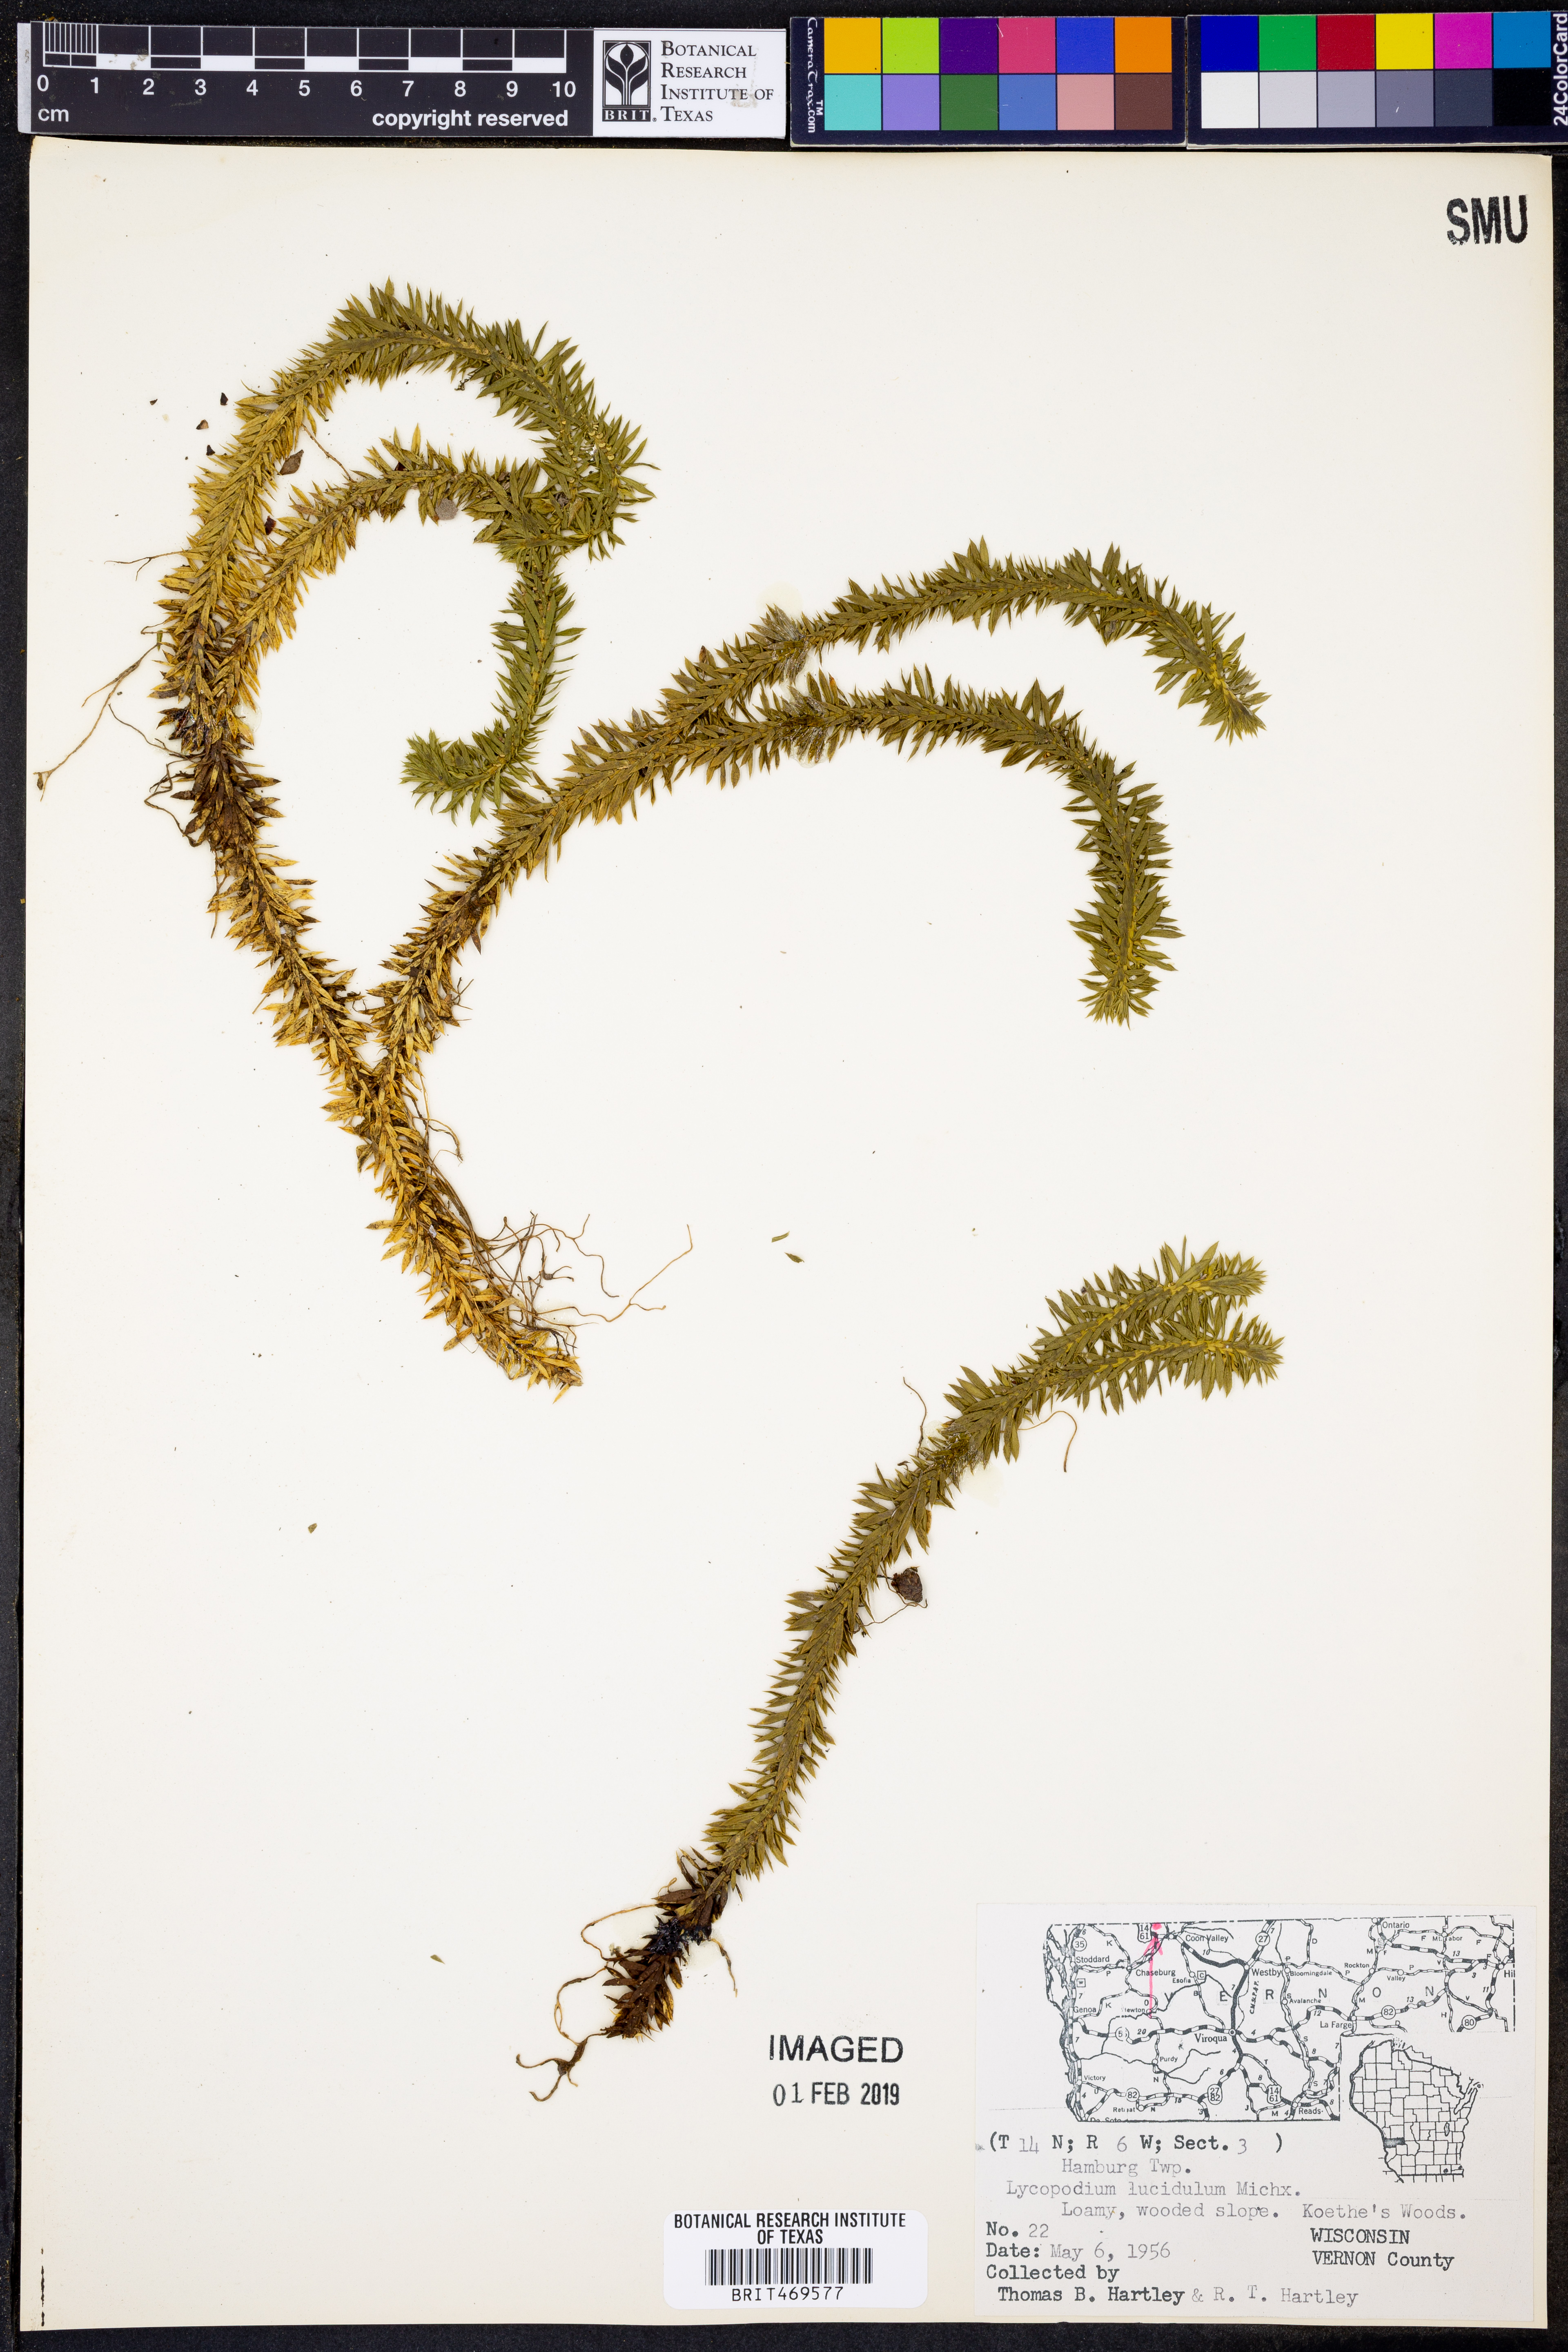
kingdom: Plantae
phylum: Tracheophyta
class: Lycopodiopsida
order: Lycopodiales
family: Lycopodiaceae
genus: Huperzia
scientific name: Huperzia lucidula
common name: Shining clubmoss
